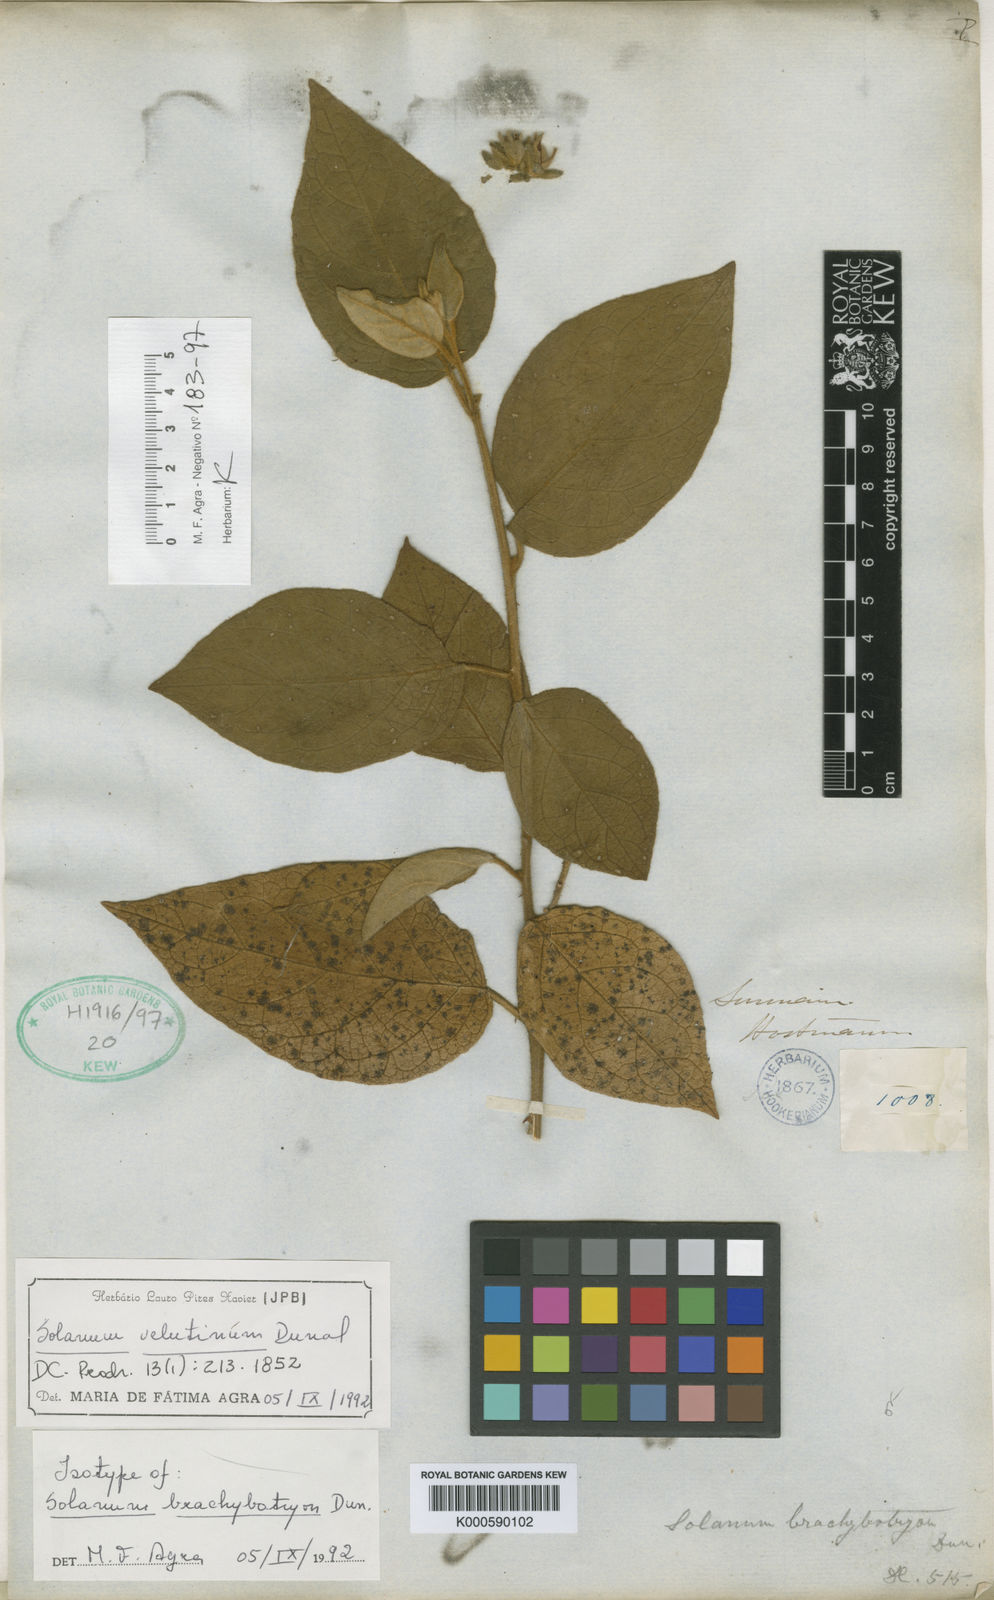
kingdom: Plantae
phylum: Tracheophyta
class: Magnoliopsida
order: Solanales
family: Solanaceae
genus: Solanum
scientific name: Solanum velutinum
